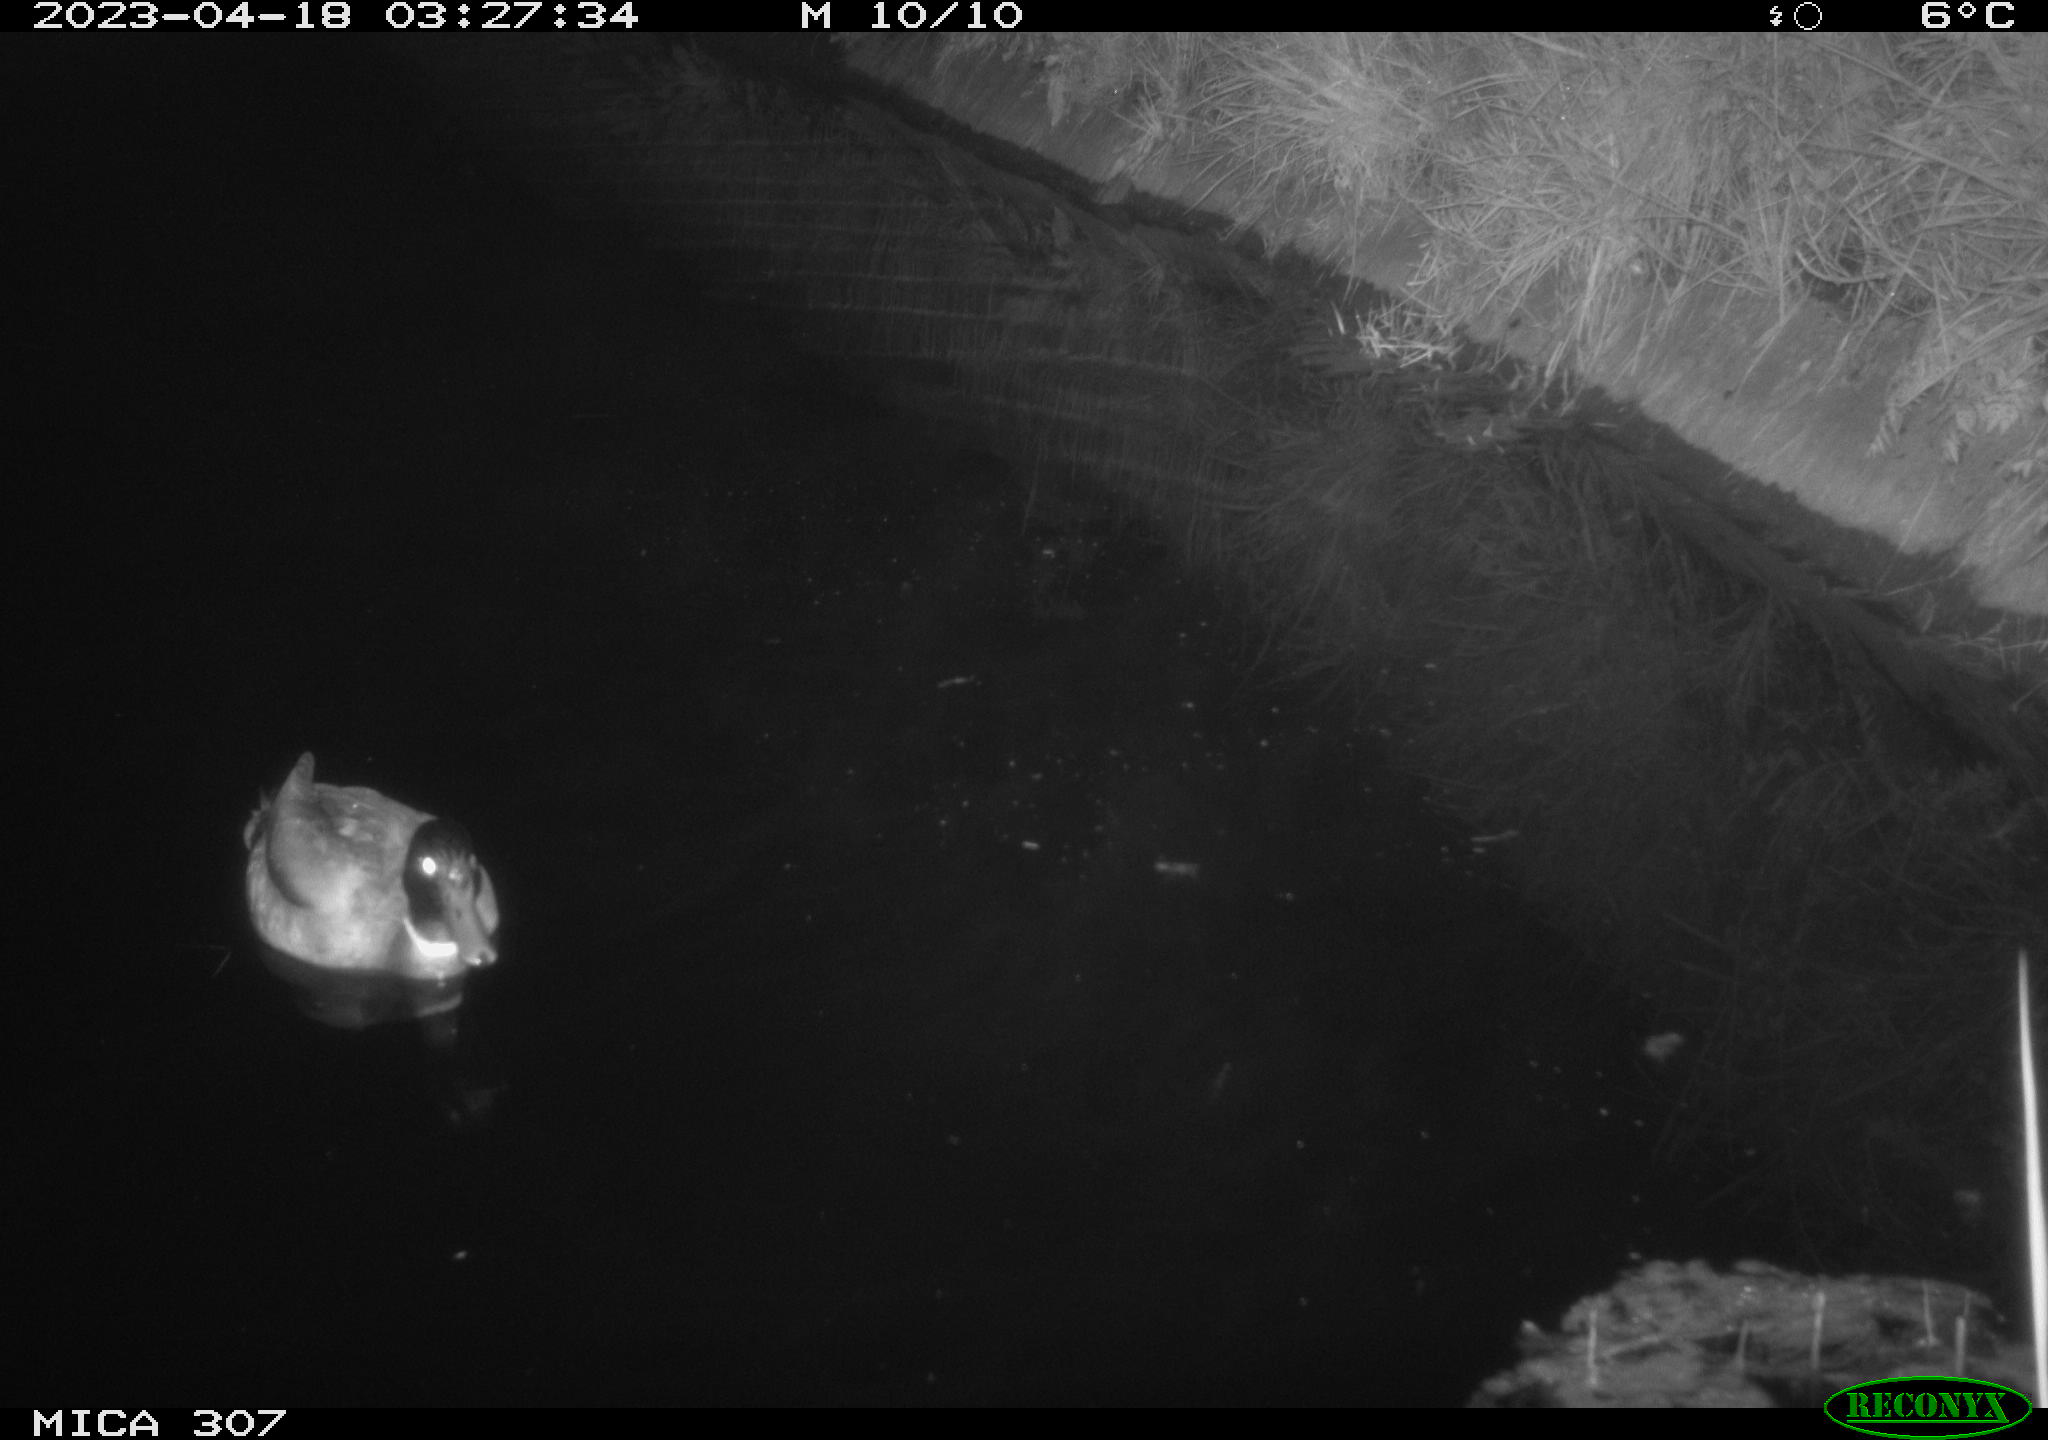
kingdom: Animalia
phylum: Chordata
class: Aves
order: Anseriformes
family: Anatidae
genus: Anas
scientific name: Anas
